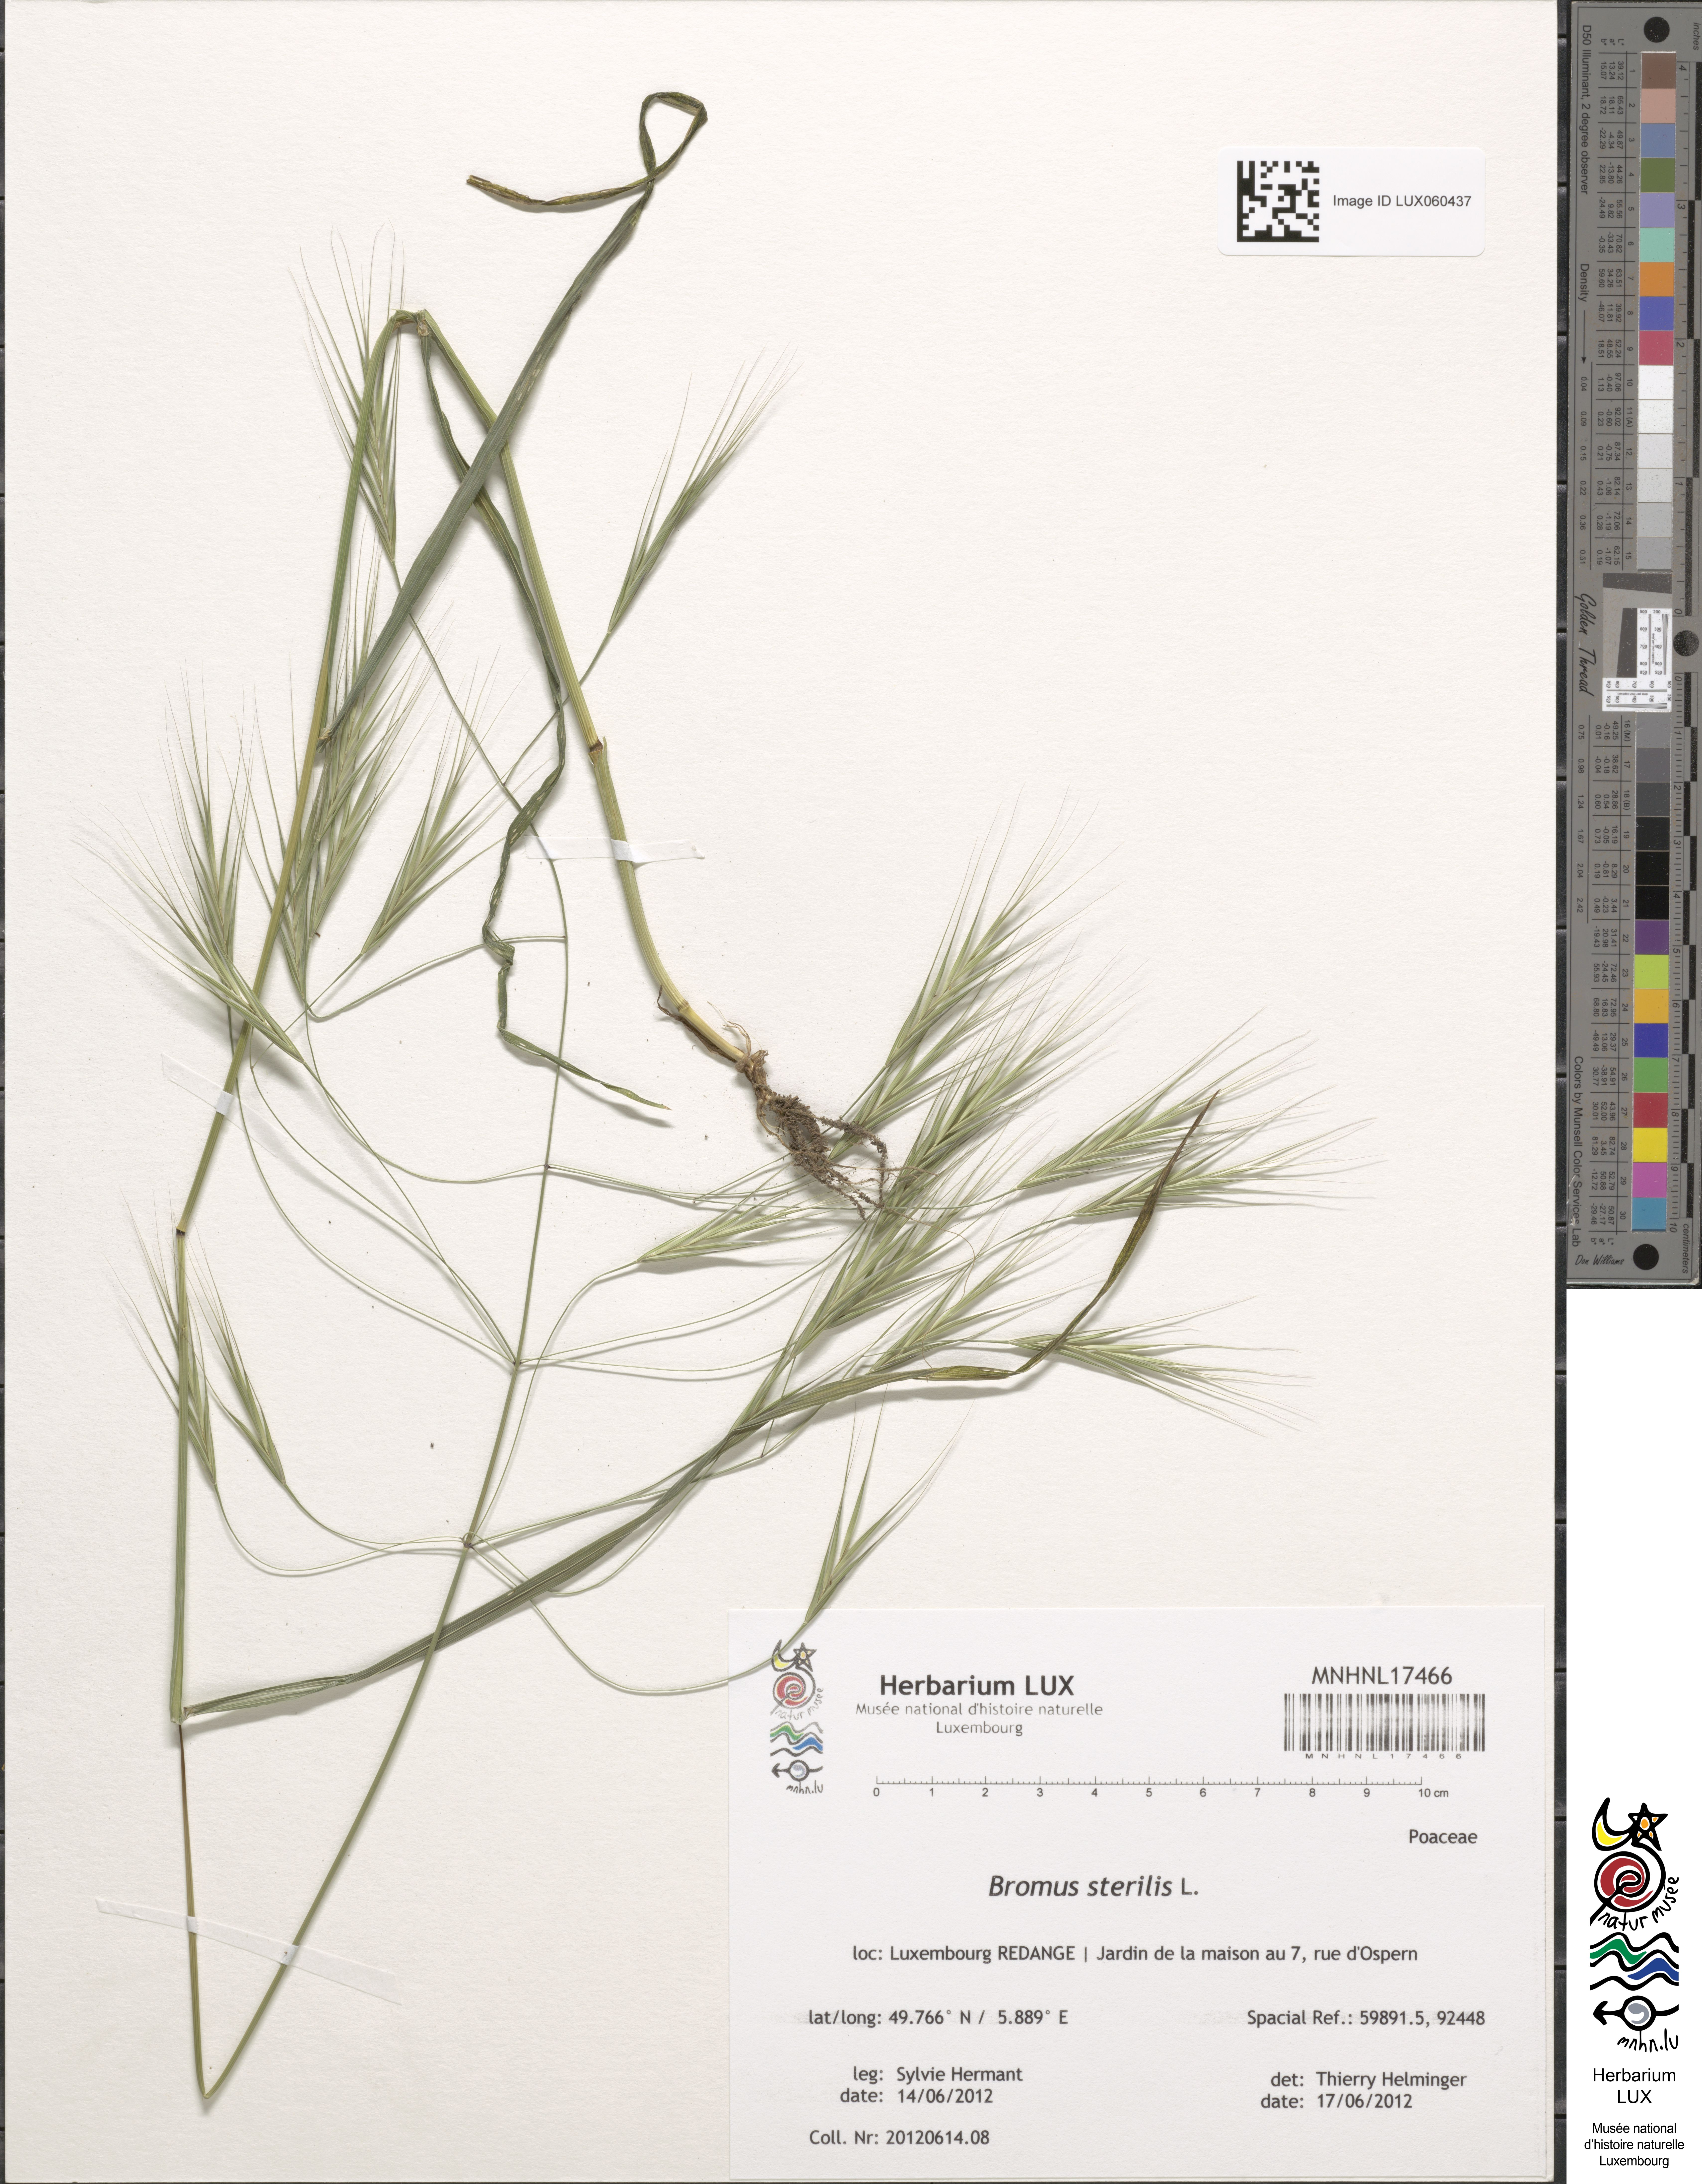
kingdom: Plantae
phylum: Tracheophyta
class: Liliopsida
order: Poales
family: Poaceae
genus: Bromus
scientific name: Bromus sterilis
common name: Poverty brome
